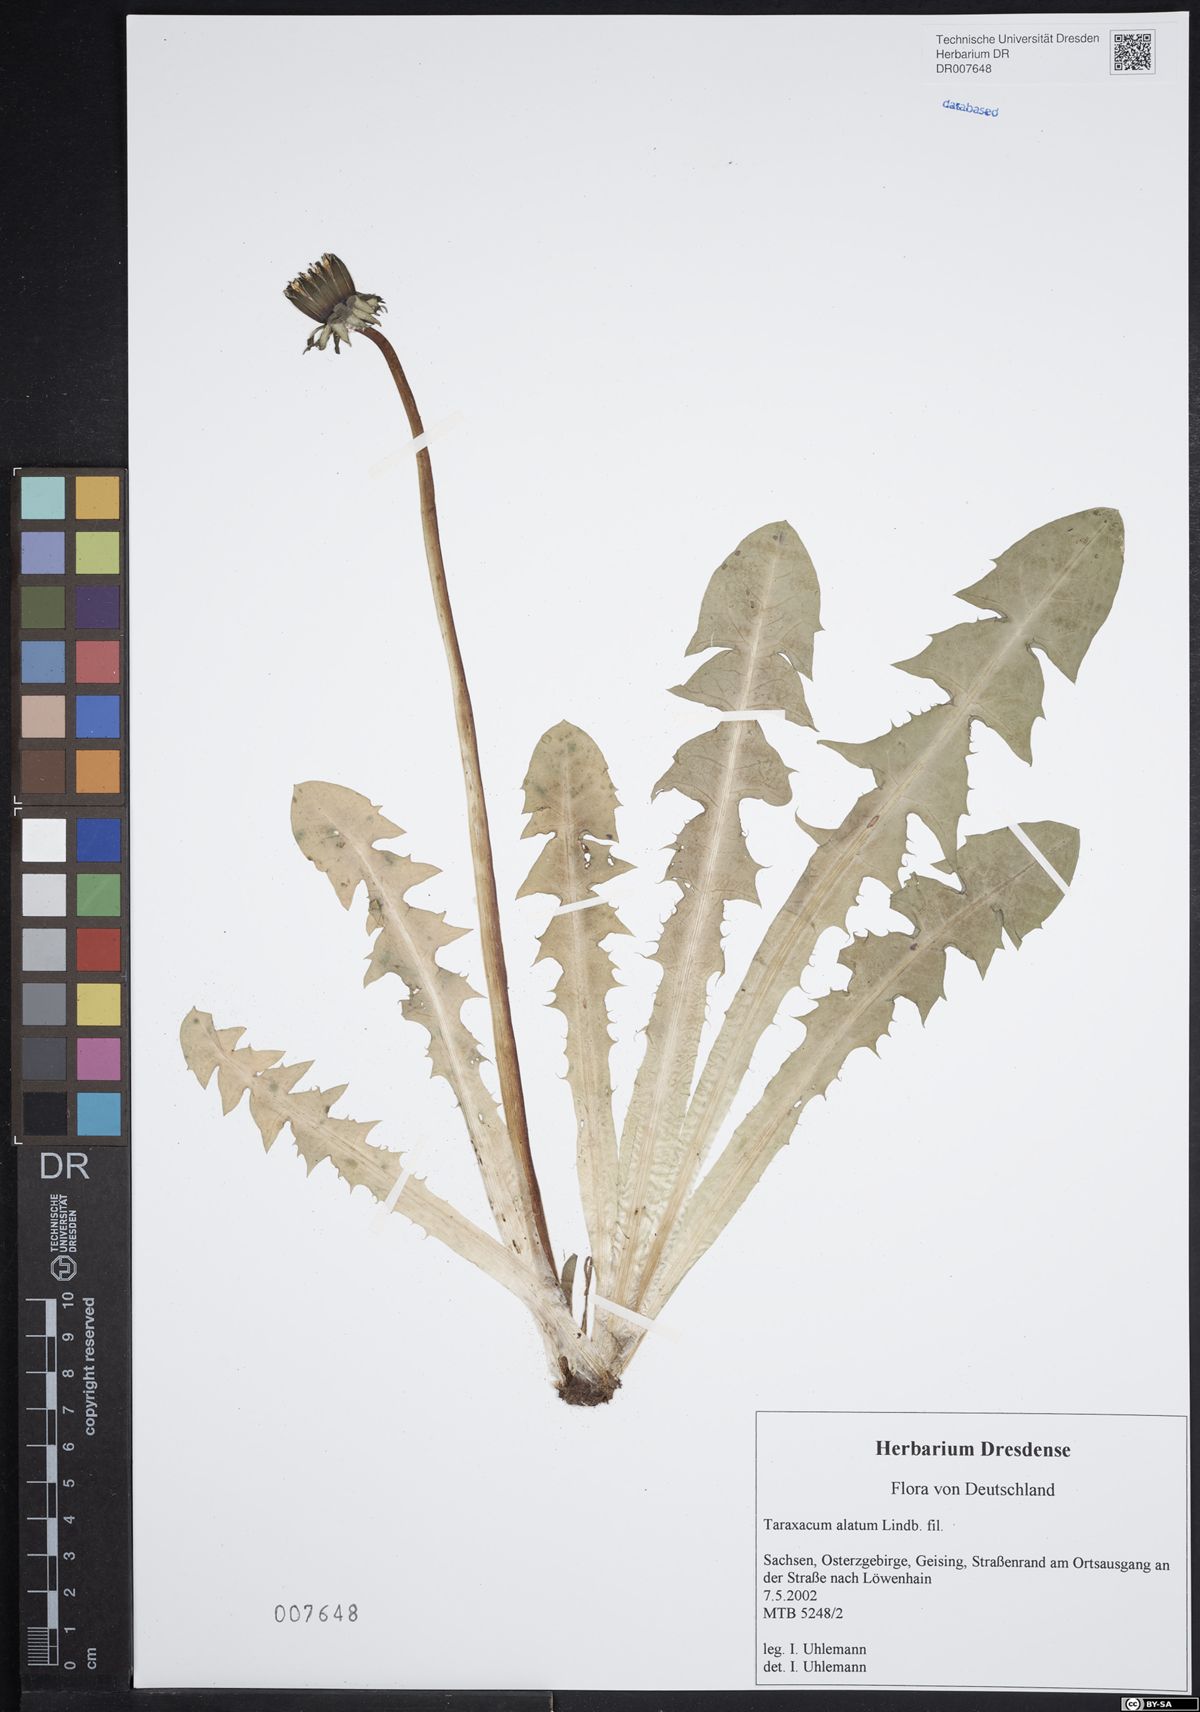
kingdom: Plantae
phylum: Tracheophyta
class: Magnoliopsida
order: Asterales
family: Asteraceae
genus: Taraxacum
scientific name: Taraxacum alatum
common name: Green dandelion
